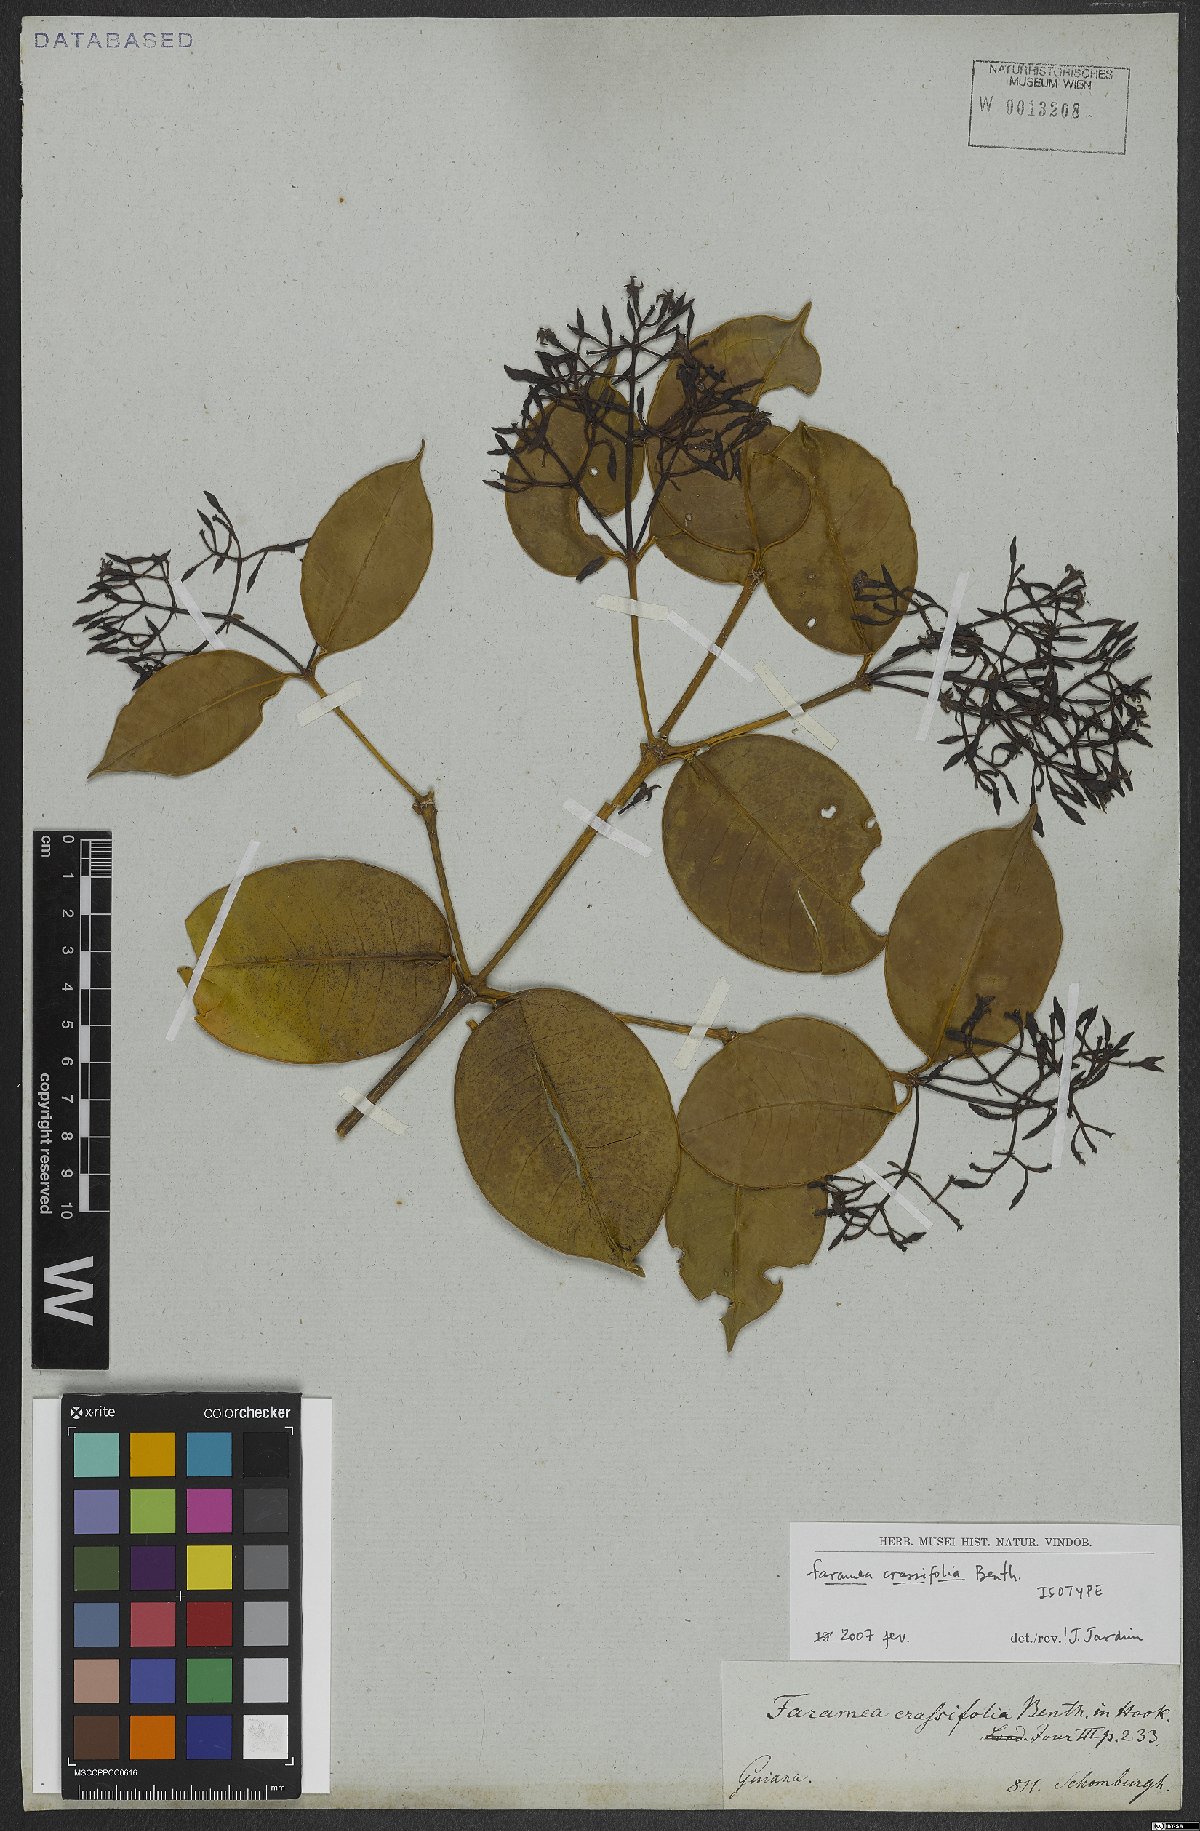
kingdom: Plantae
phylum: Tracheophyta
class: Magnoliopsida
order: Gentianales
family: Rubiaceae
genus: Faramea
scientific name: Faramea crassifolia
